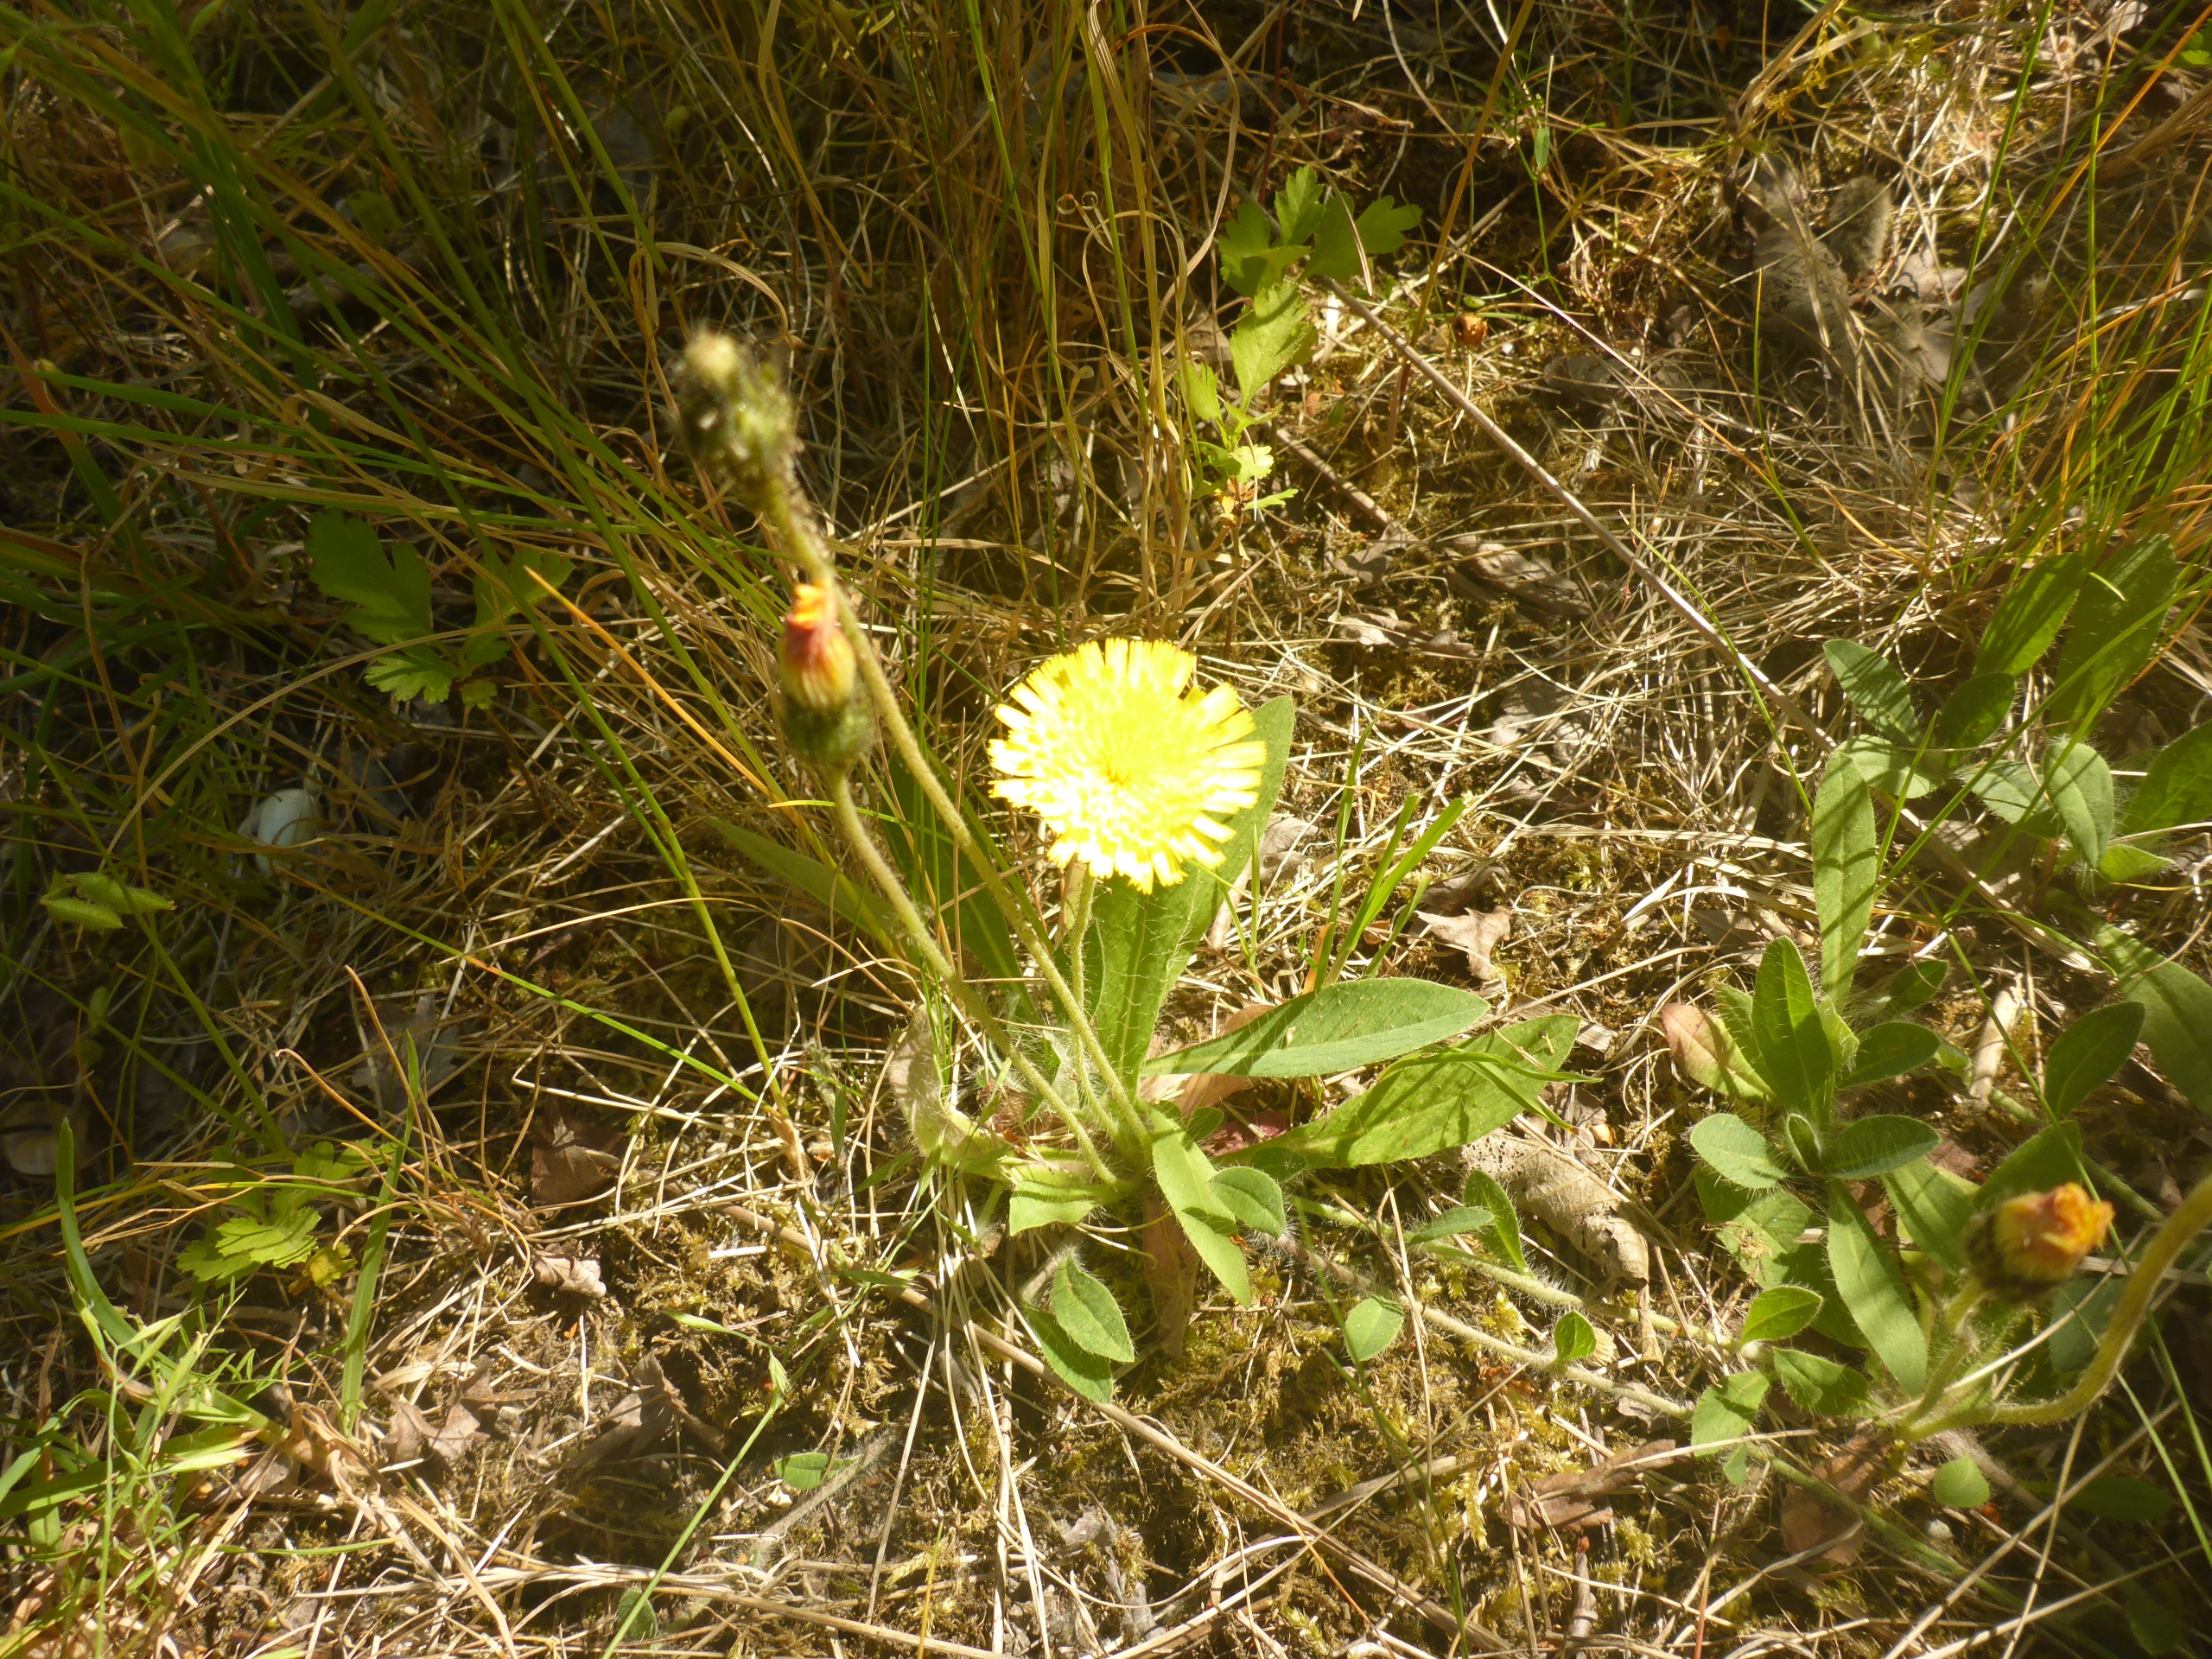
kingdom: Plantae
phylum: Tracheophyta
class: Magnoliopsida
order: Asterales
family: Asteraceae
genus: Pilosella
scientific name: Pilosella officinarum
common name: Håret høgeurt
